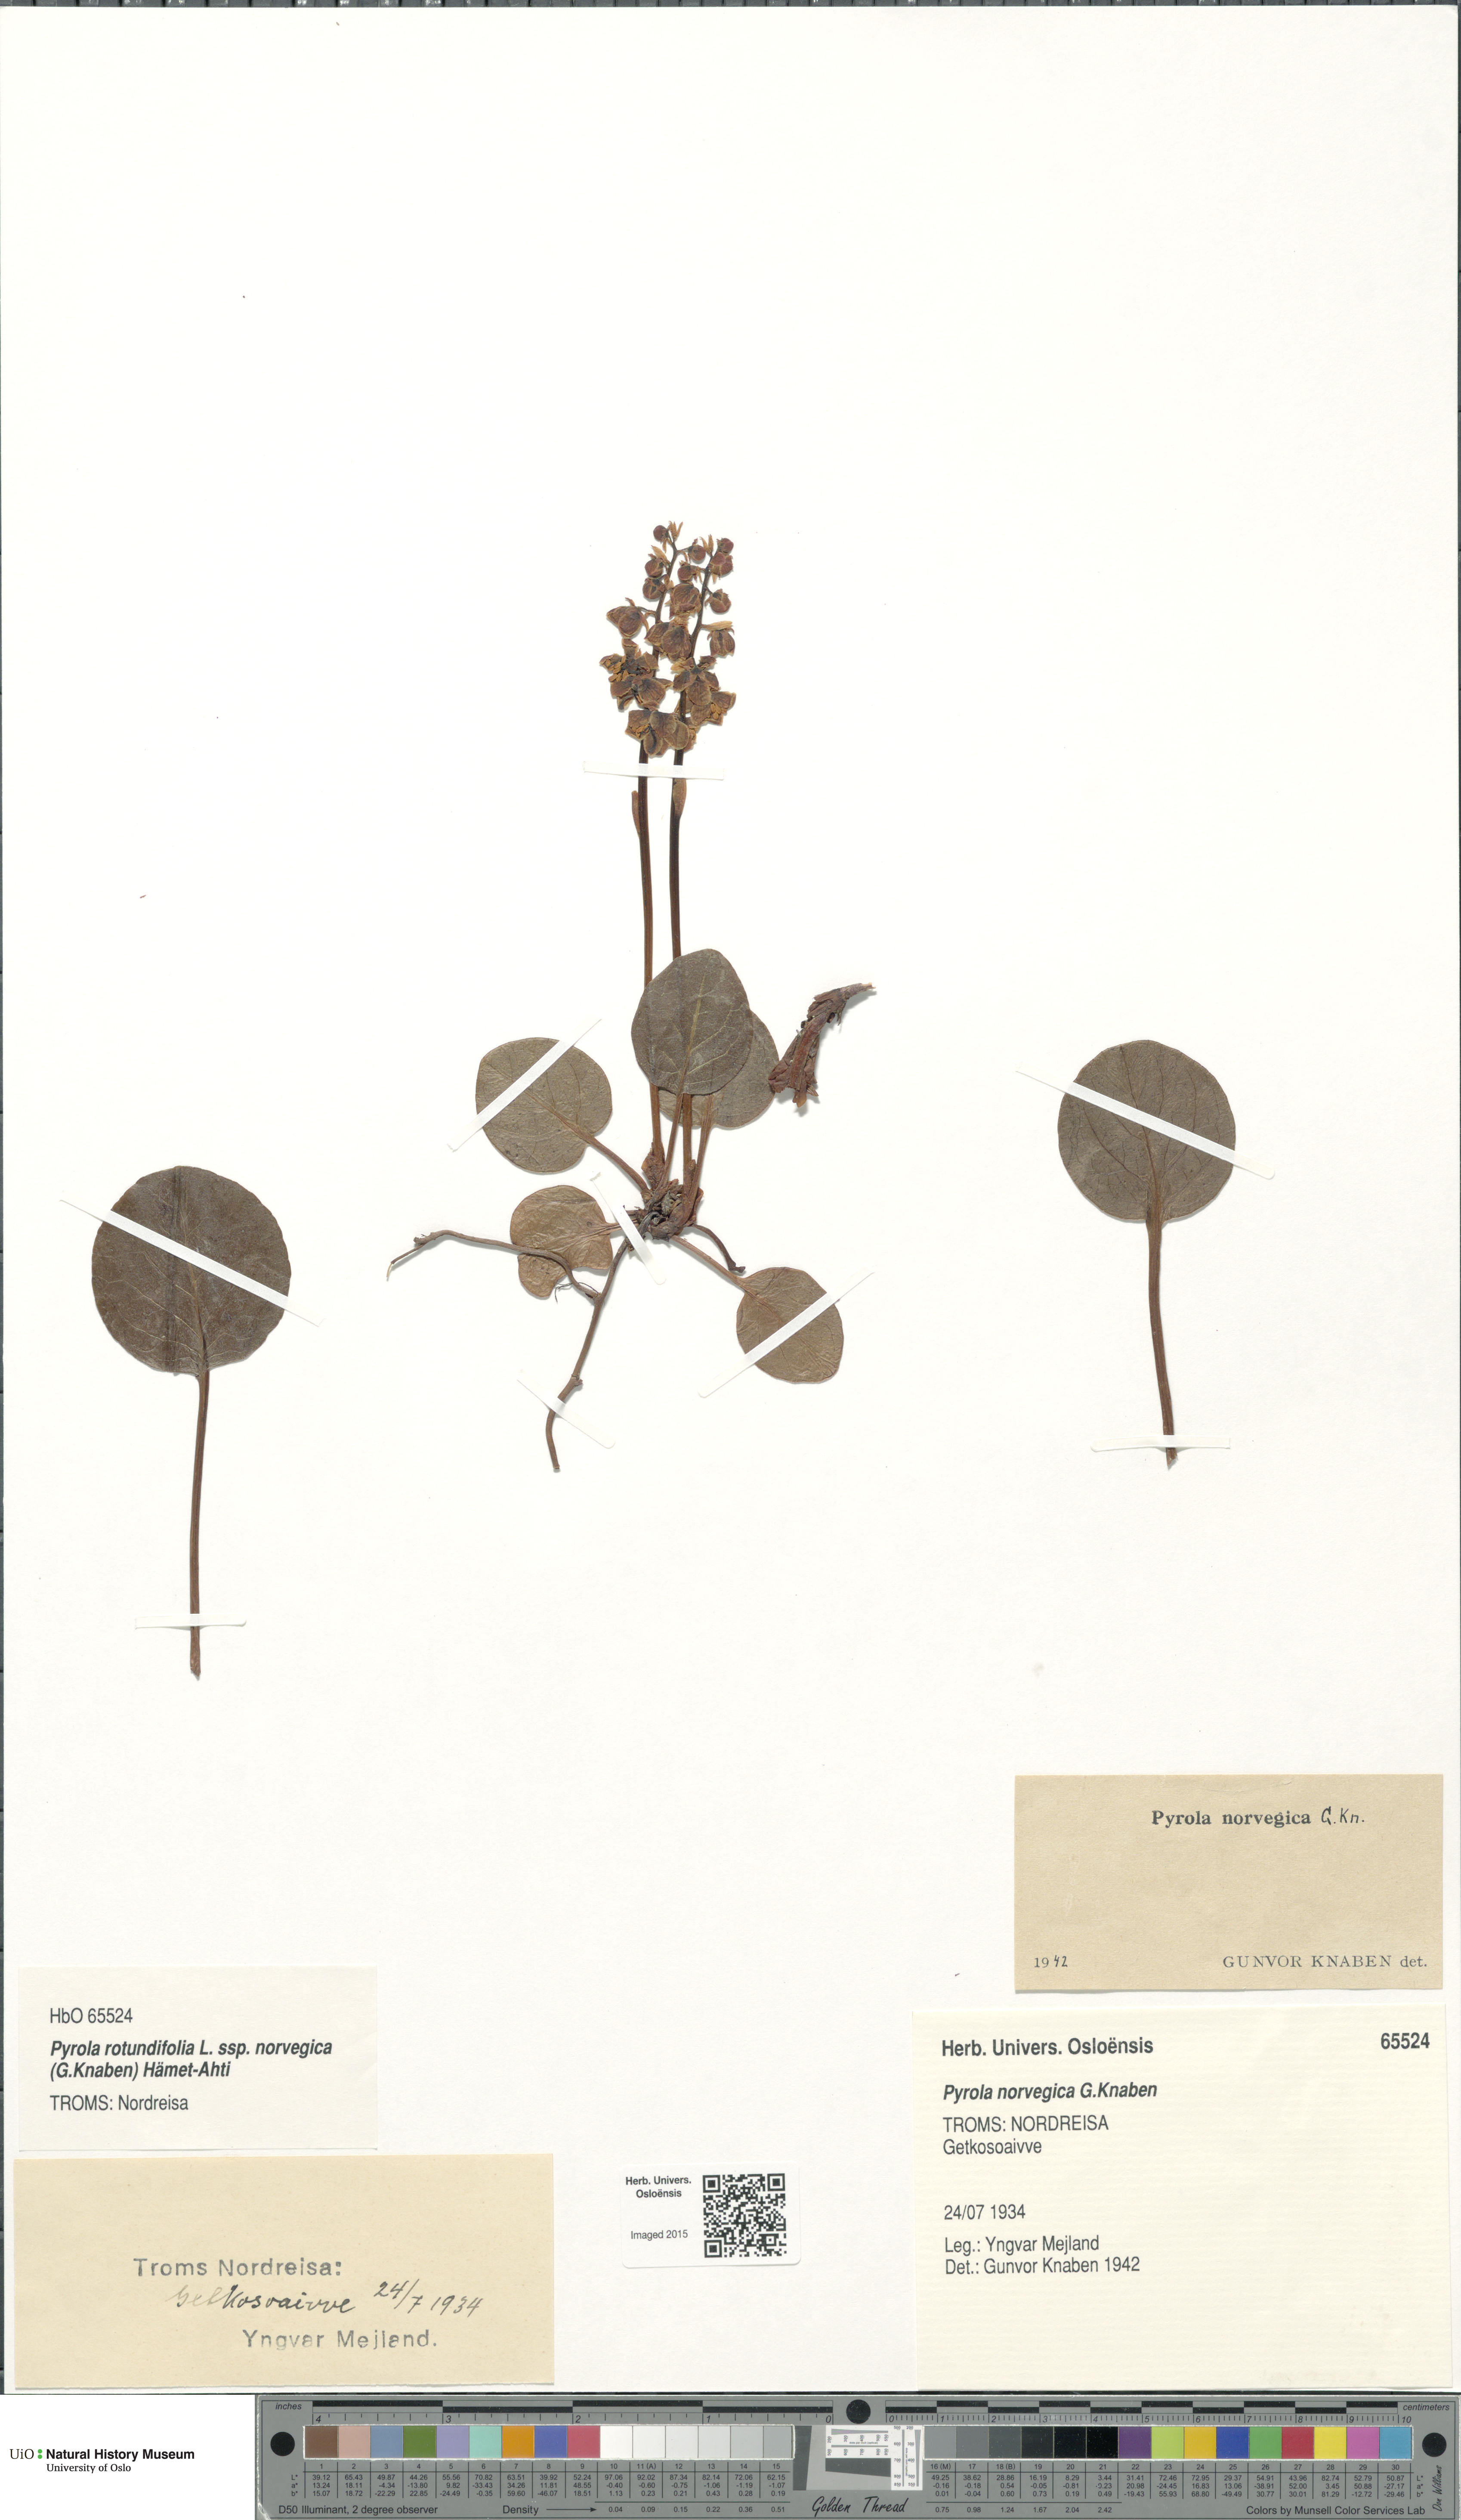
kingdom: Plantae
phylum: Tracheophyta
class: Magnoliopsida
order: Ericales
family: Ericaceae
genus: Pyrola
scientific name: Pyrola rotundifolia
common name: Round-leaved wintergreen
